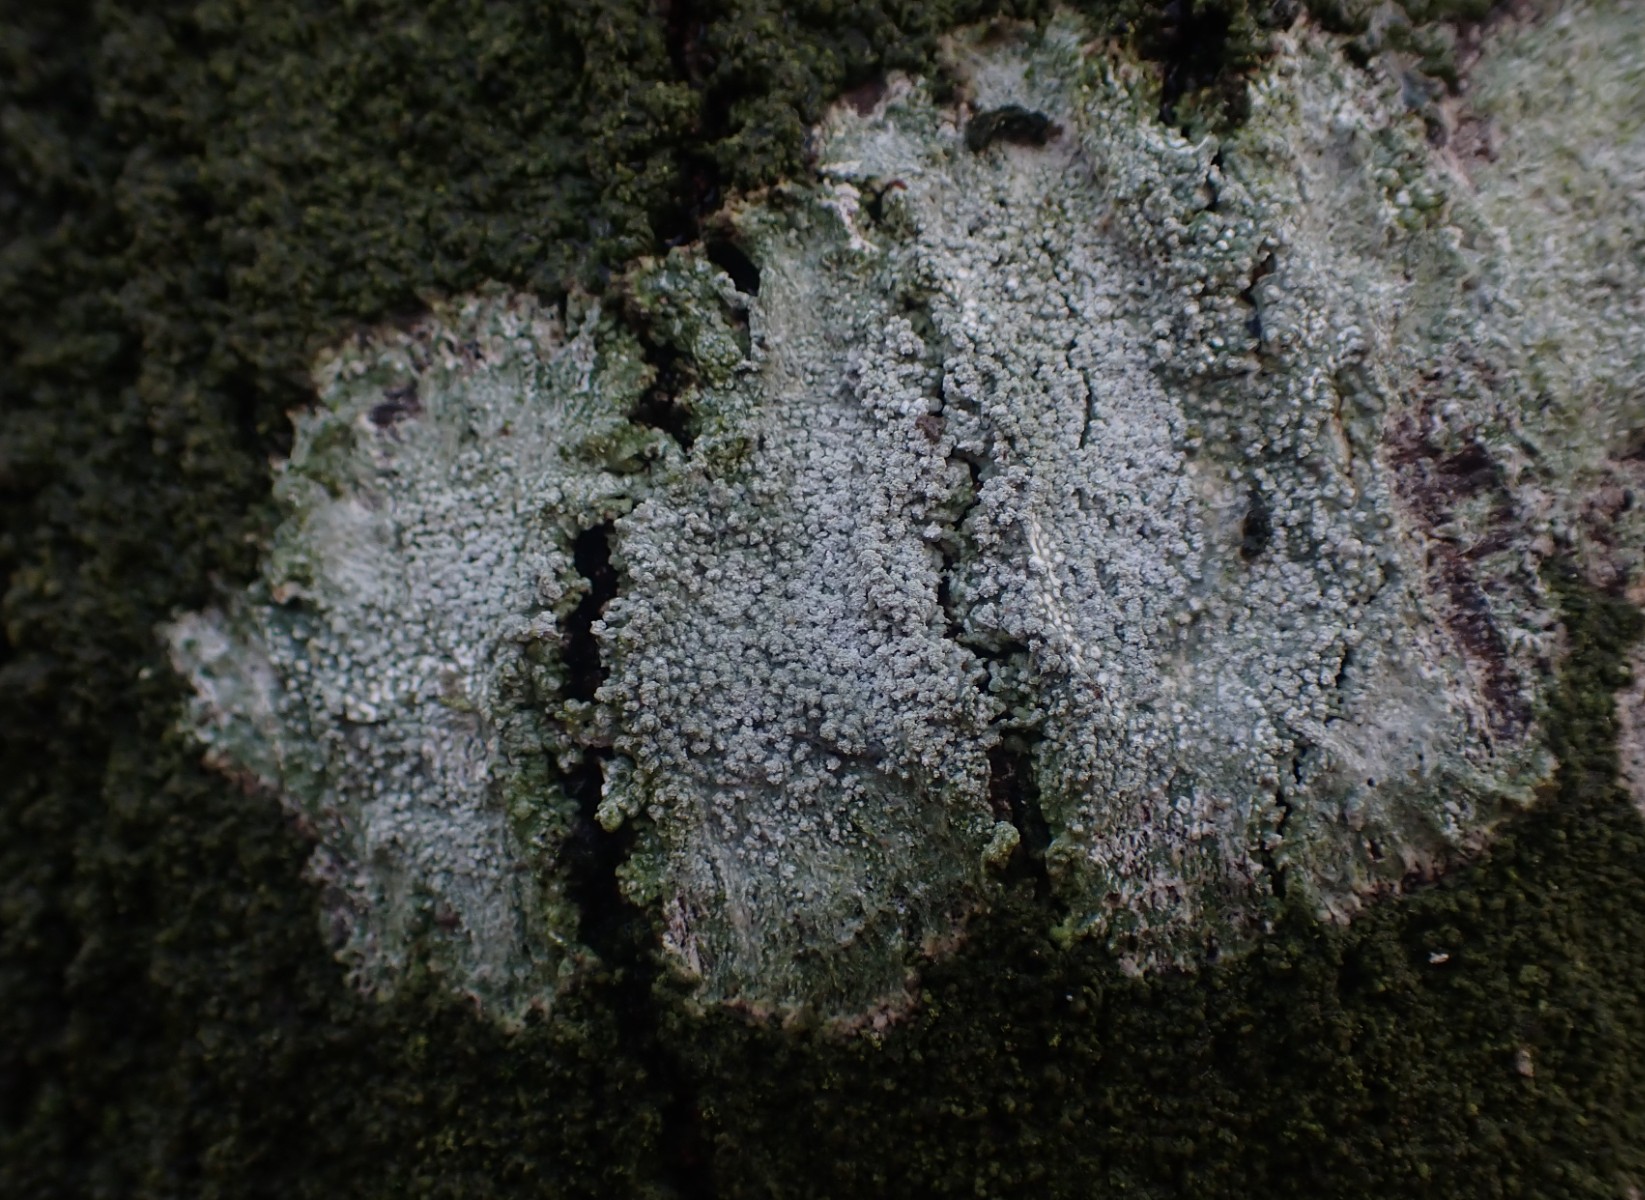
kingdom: Fungi
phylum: Ascomycota
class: Lecanoromycetes
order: Pertusariales
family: Pertusariaceae
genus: Lepra
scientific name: Lepra amara
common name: bitter prikvortelav
